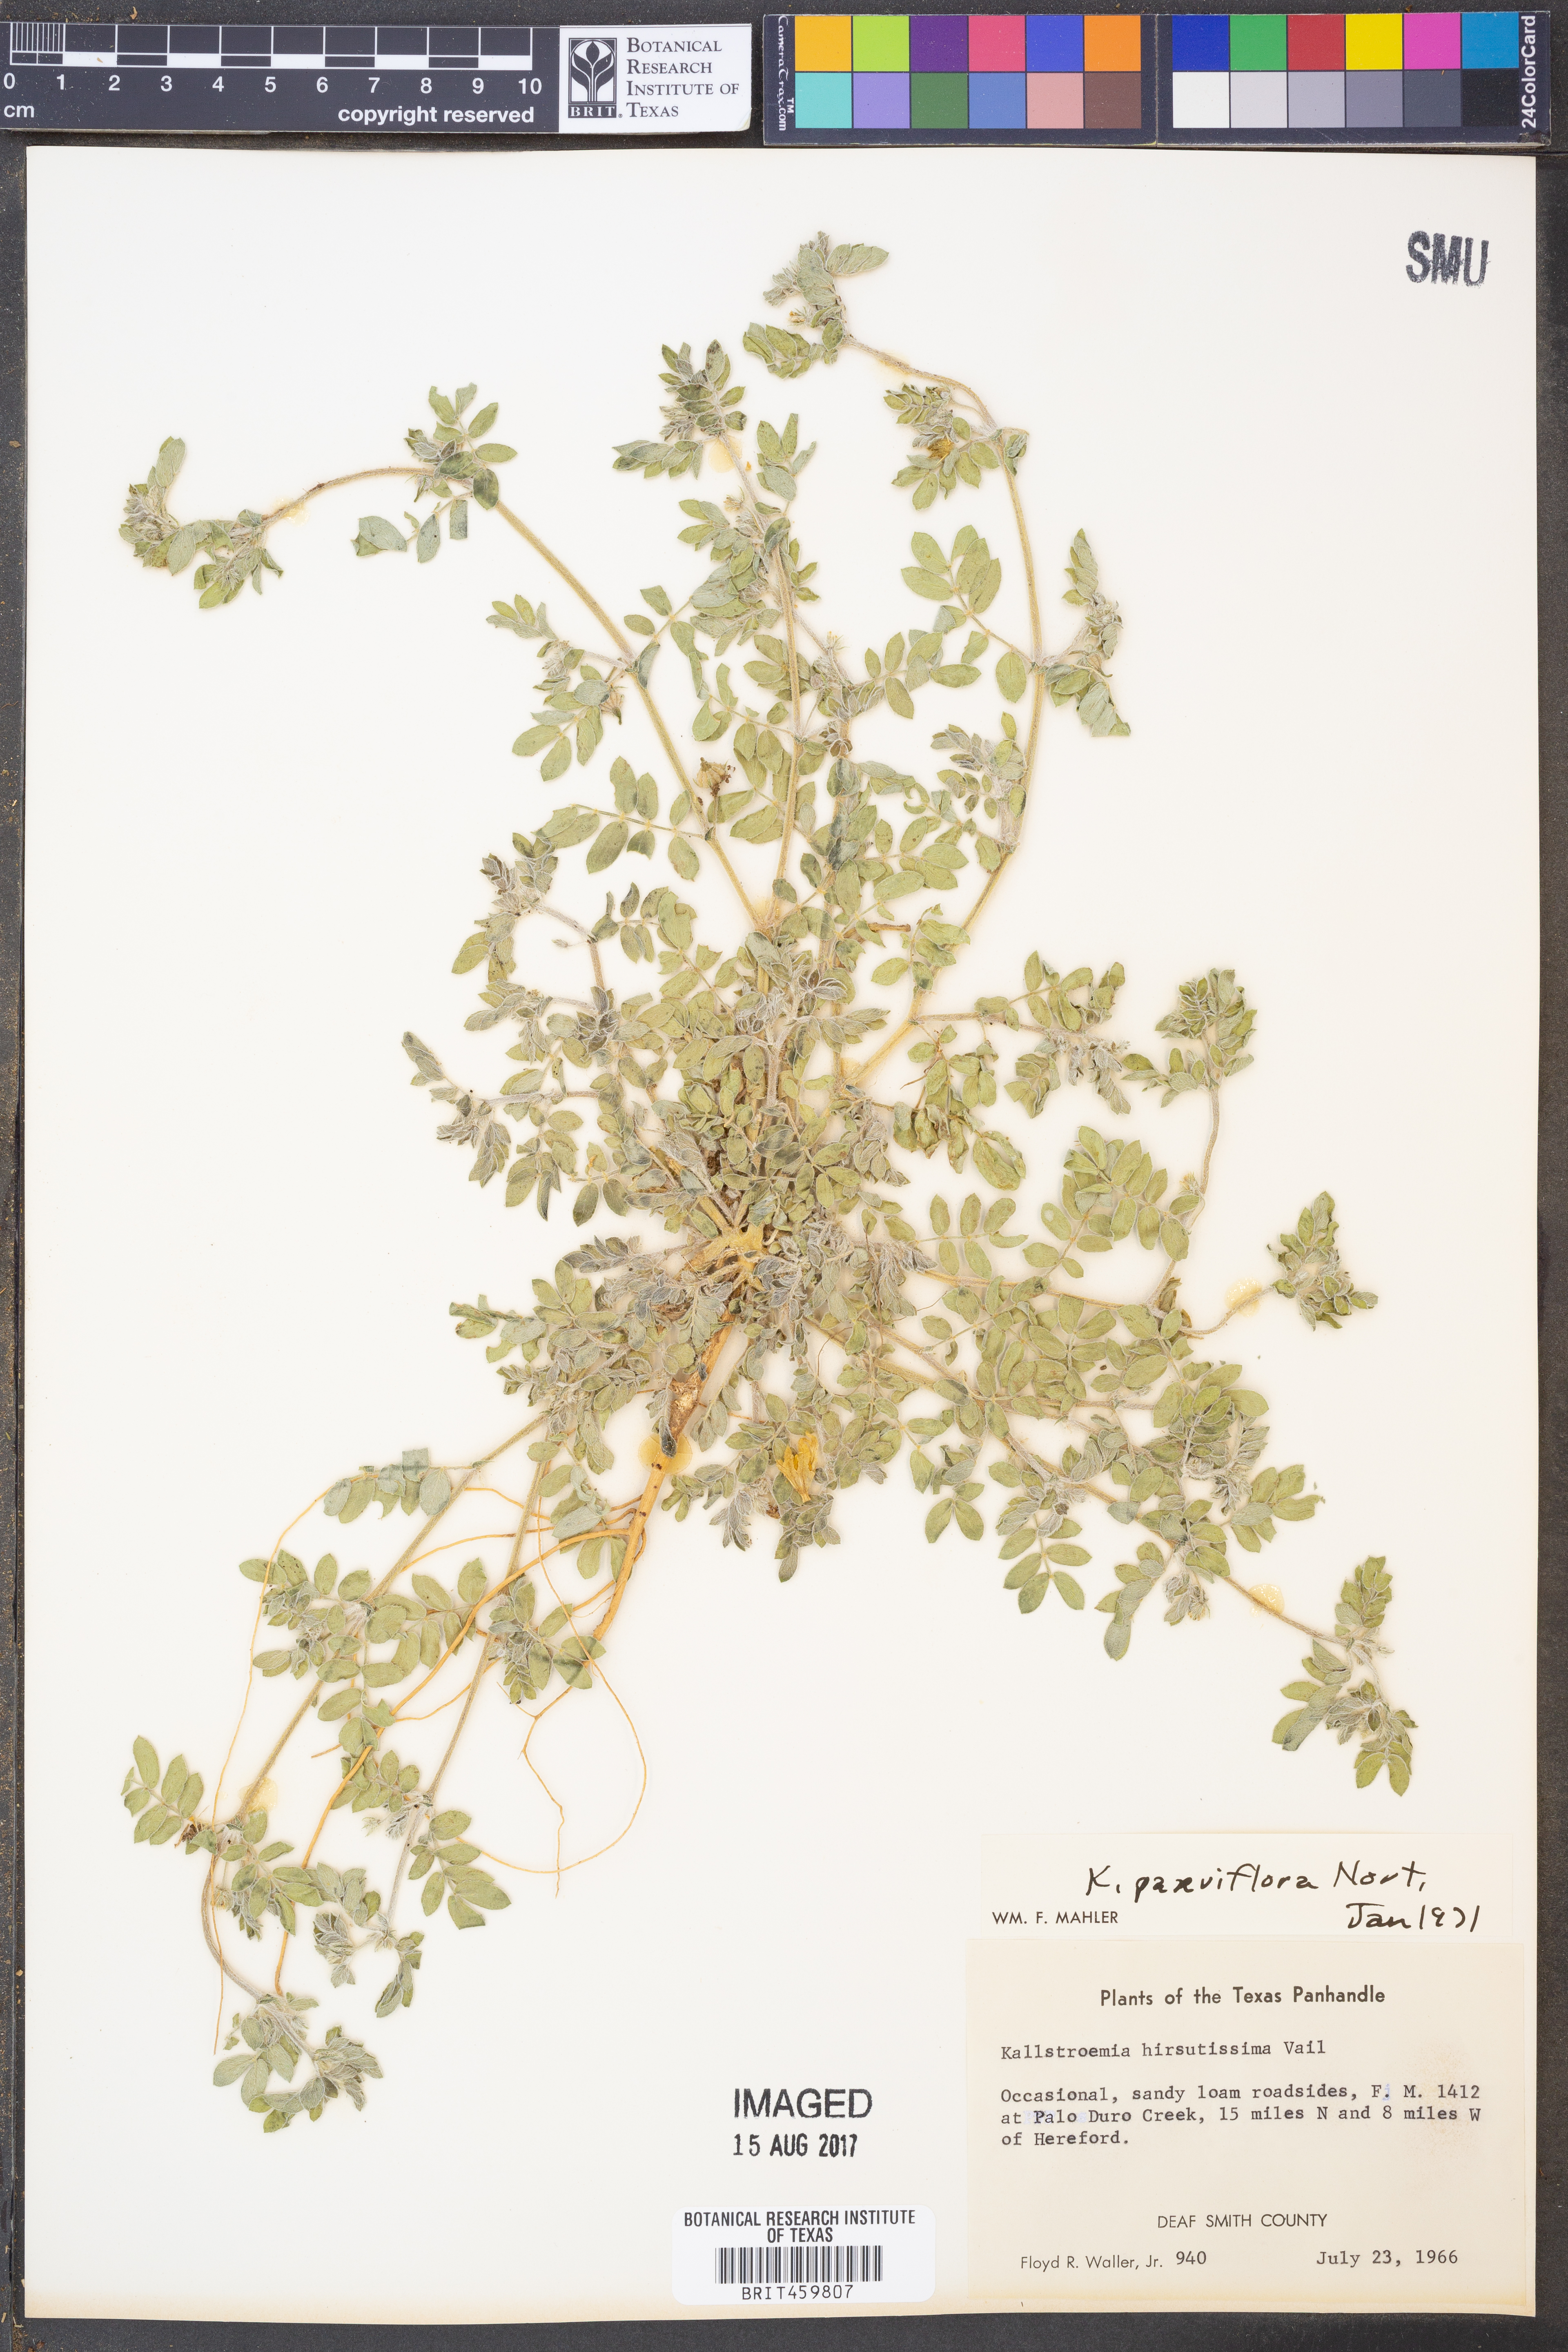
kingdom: Plantae
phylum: Tracheophyta
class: Magnoliopsida
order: Zygophyllales
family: Zygophyllaceae
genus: Kallstroemia
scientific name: Kallstroemia hirsutissima
